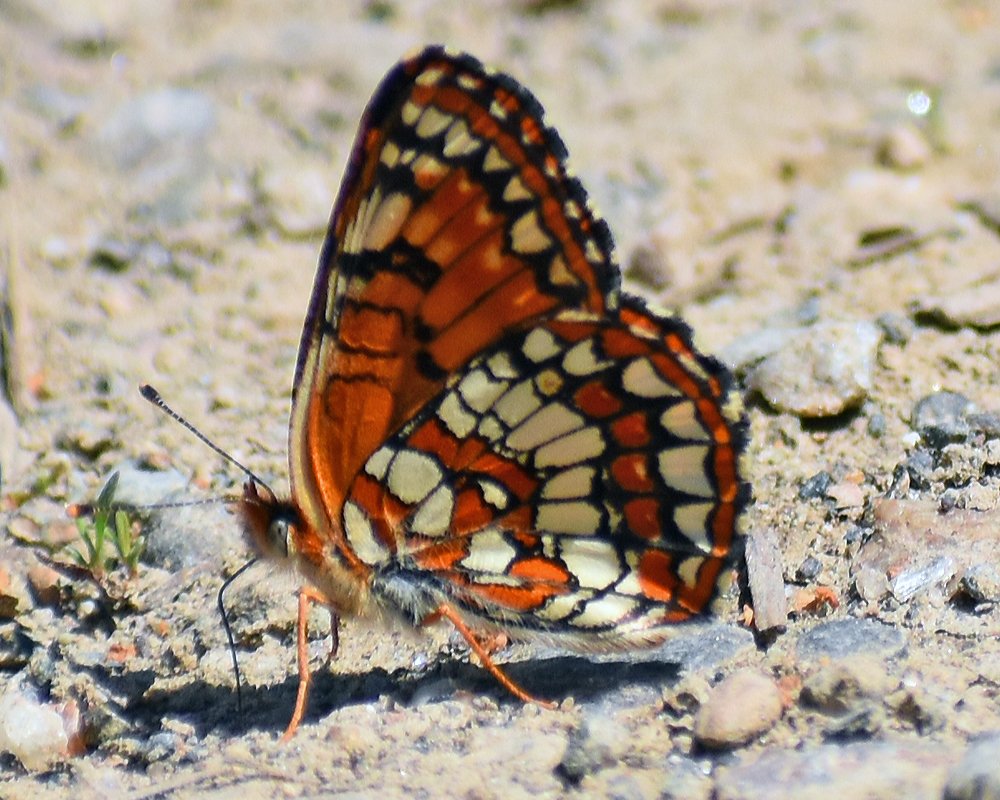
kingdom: Animalia
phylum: Arthropoda
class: Insecta
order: Lepidoptera
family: Nymphalidae
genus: Chlosyne
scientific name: Chlosyne palla
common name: Northern Checkerspot
